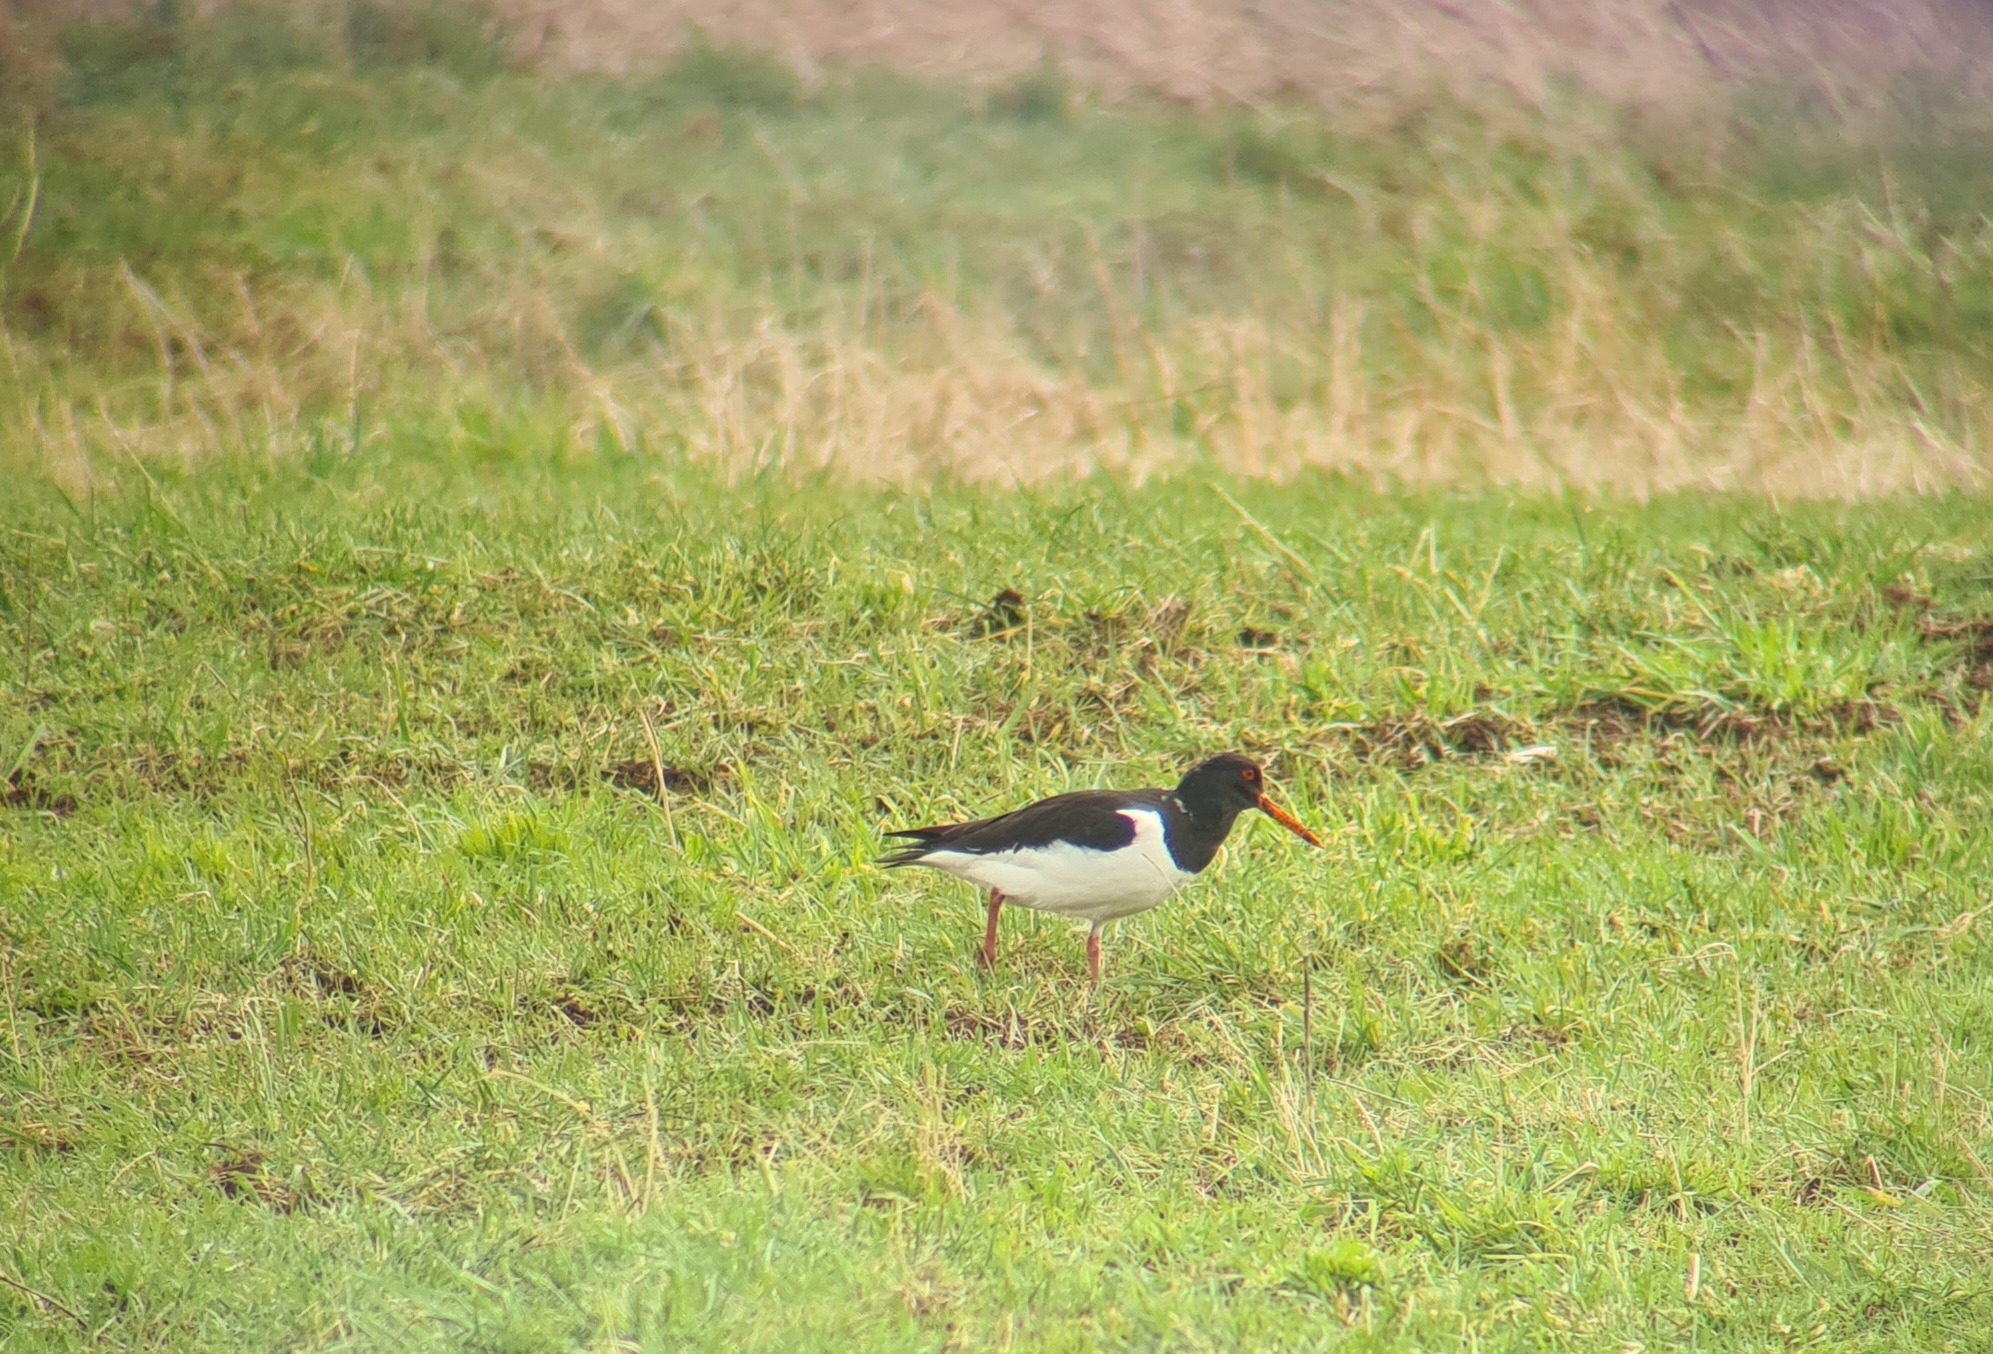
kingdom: Animalia
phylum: Chordata
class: Aves
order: Charadriiformes
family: Haematopodidae
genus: Haematopus
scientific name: Haematopus ostralegus
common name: Strandskade
